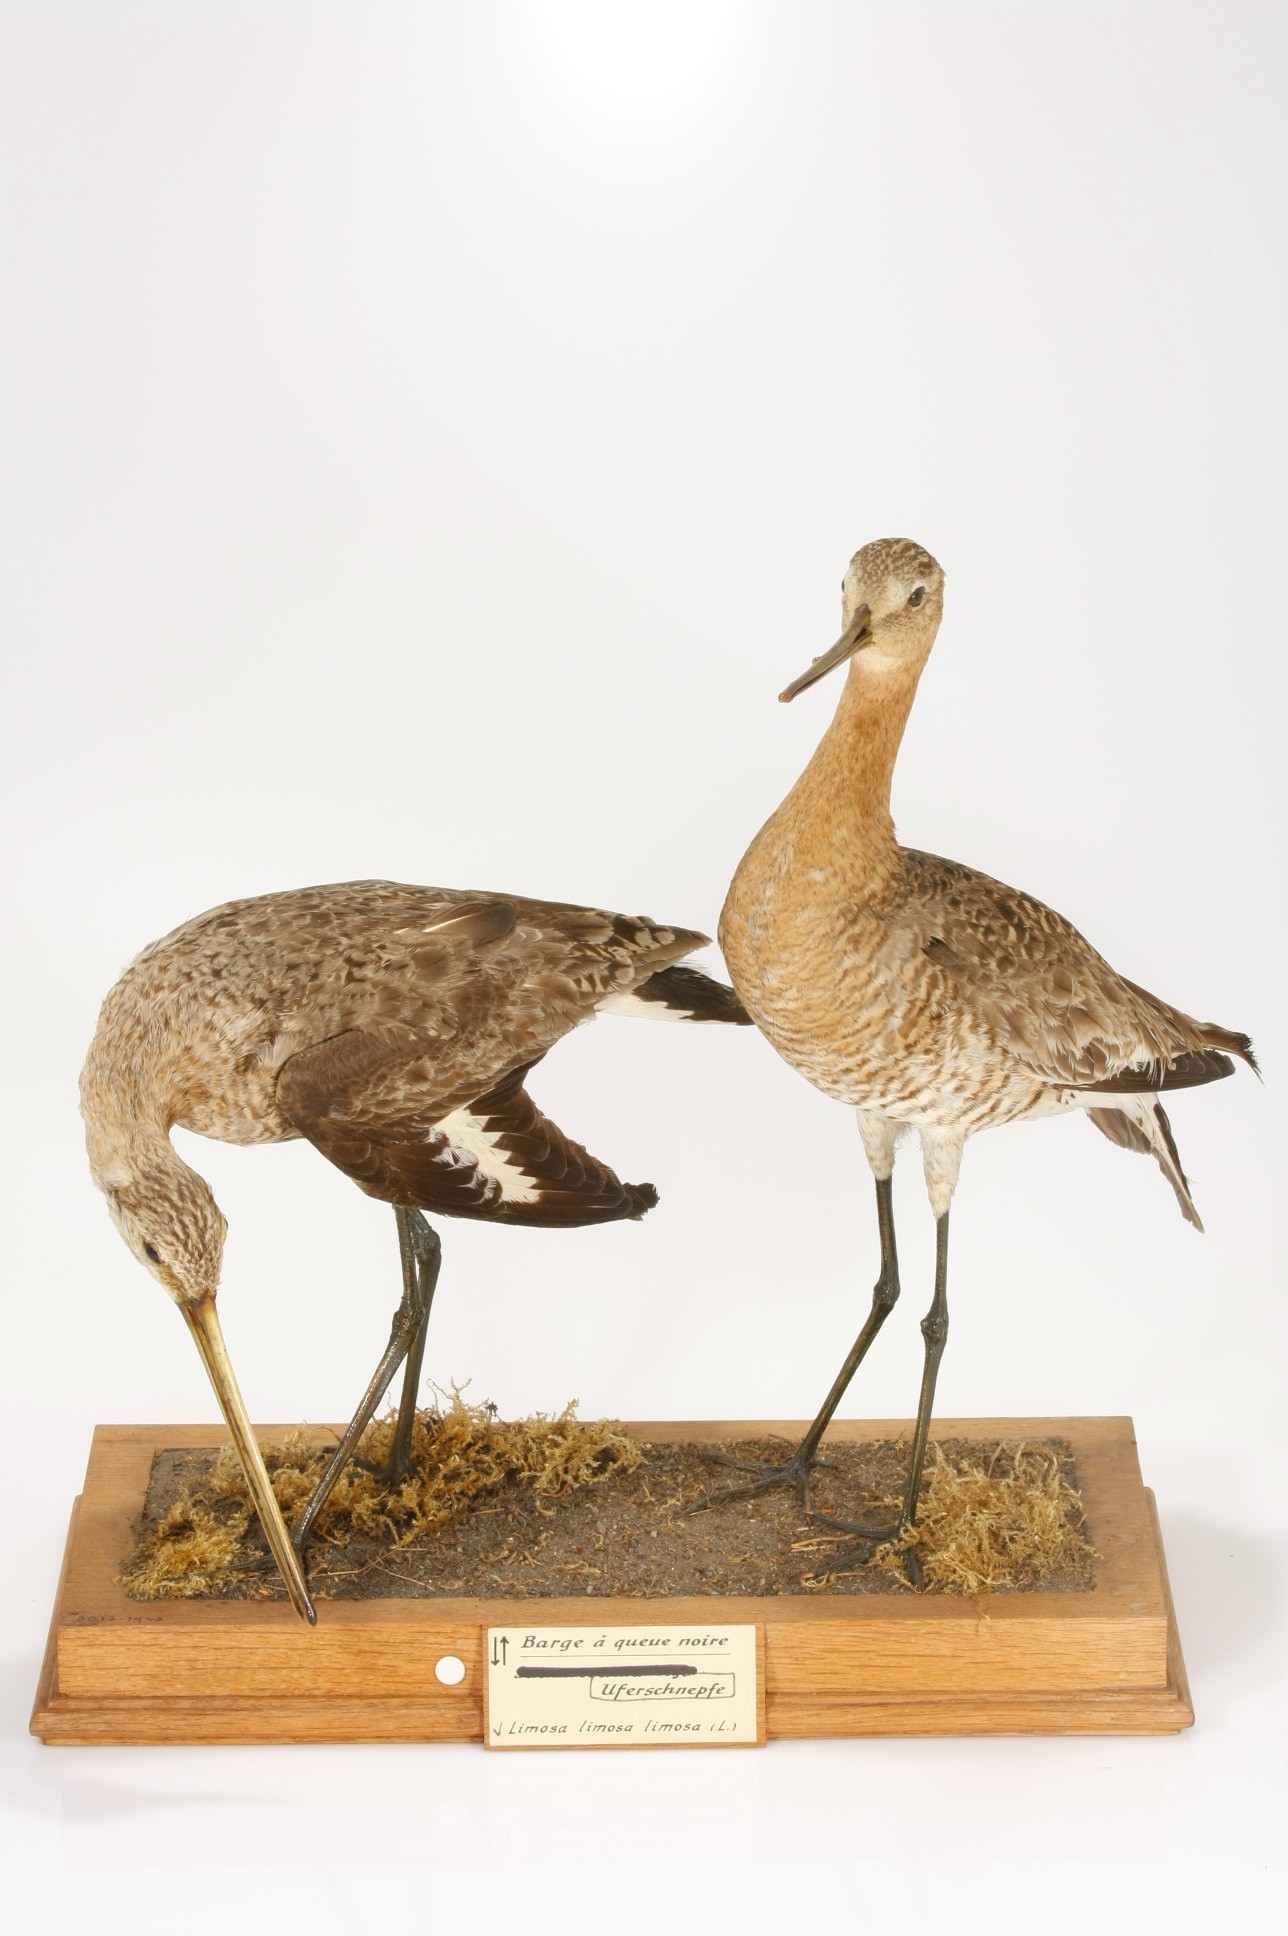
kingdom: Animalia
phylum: Chordata
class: Aves
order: Charadriiformes
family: Scolopacidae
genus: Limosa
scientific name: Limosa limosa
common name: Black-tailed godwit
